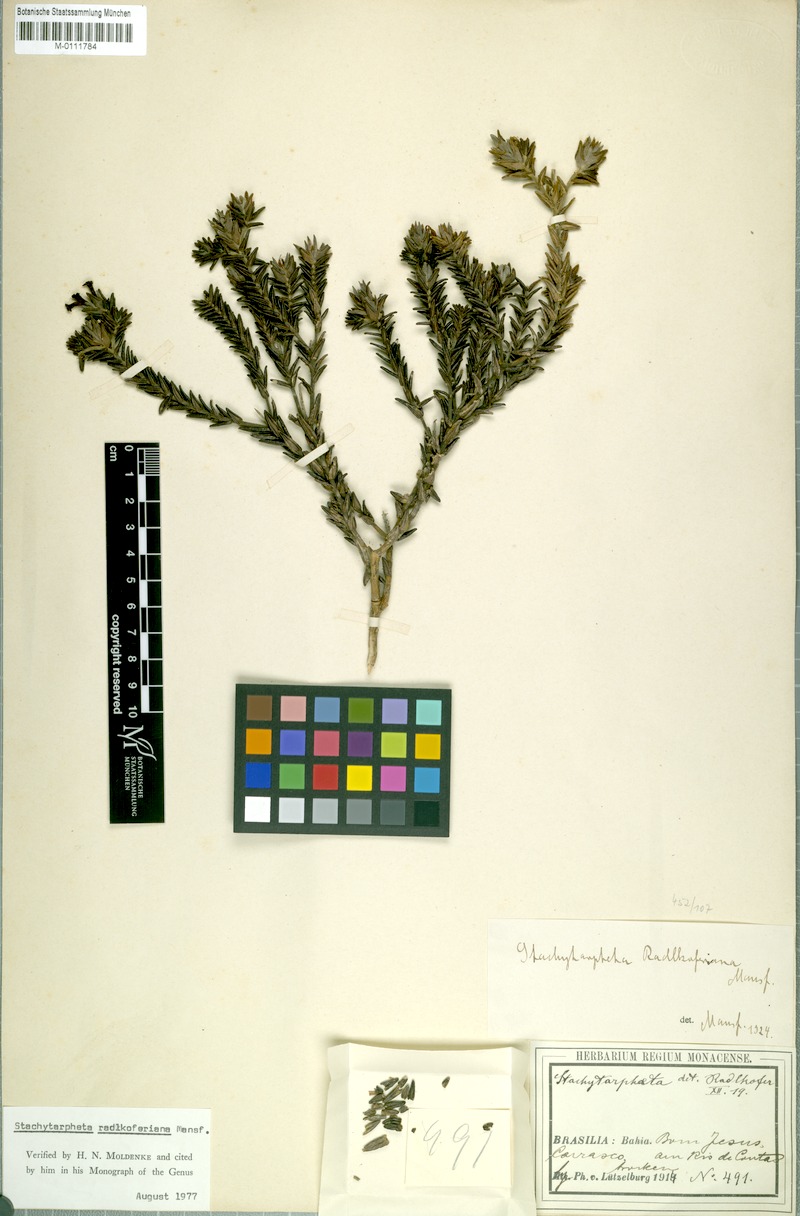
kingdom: Plantae
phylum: Tracheophyta
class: Magnoliopsida
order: Lamiales
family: Verbenaceae
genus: Stachytarpheta
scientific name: Stachytarpheta radlkoferiana
